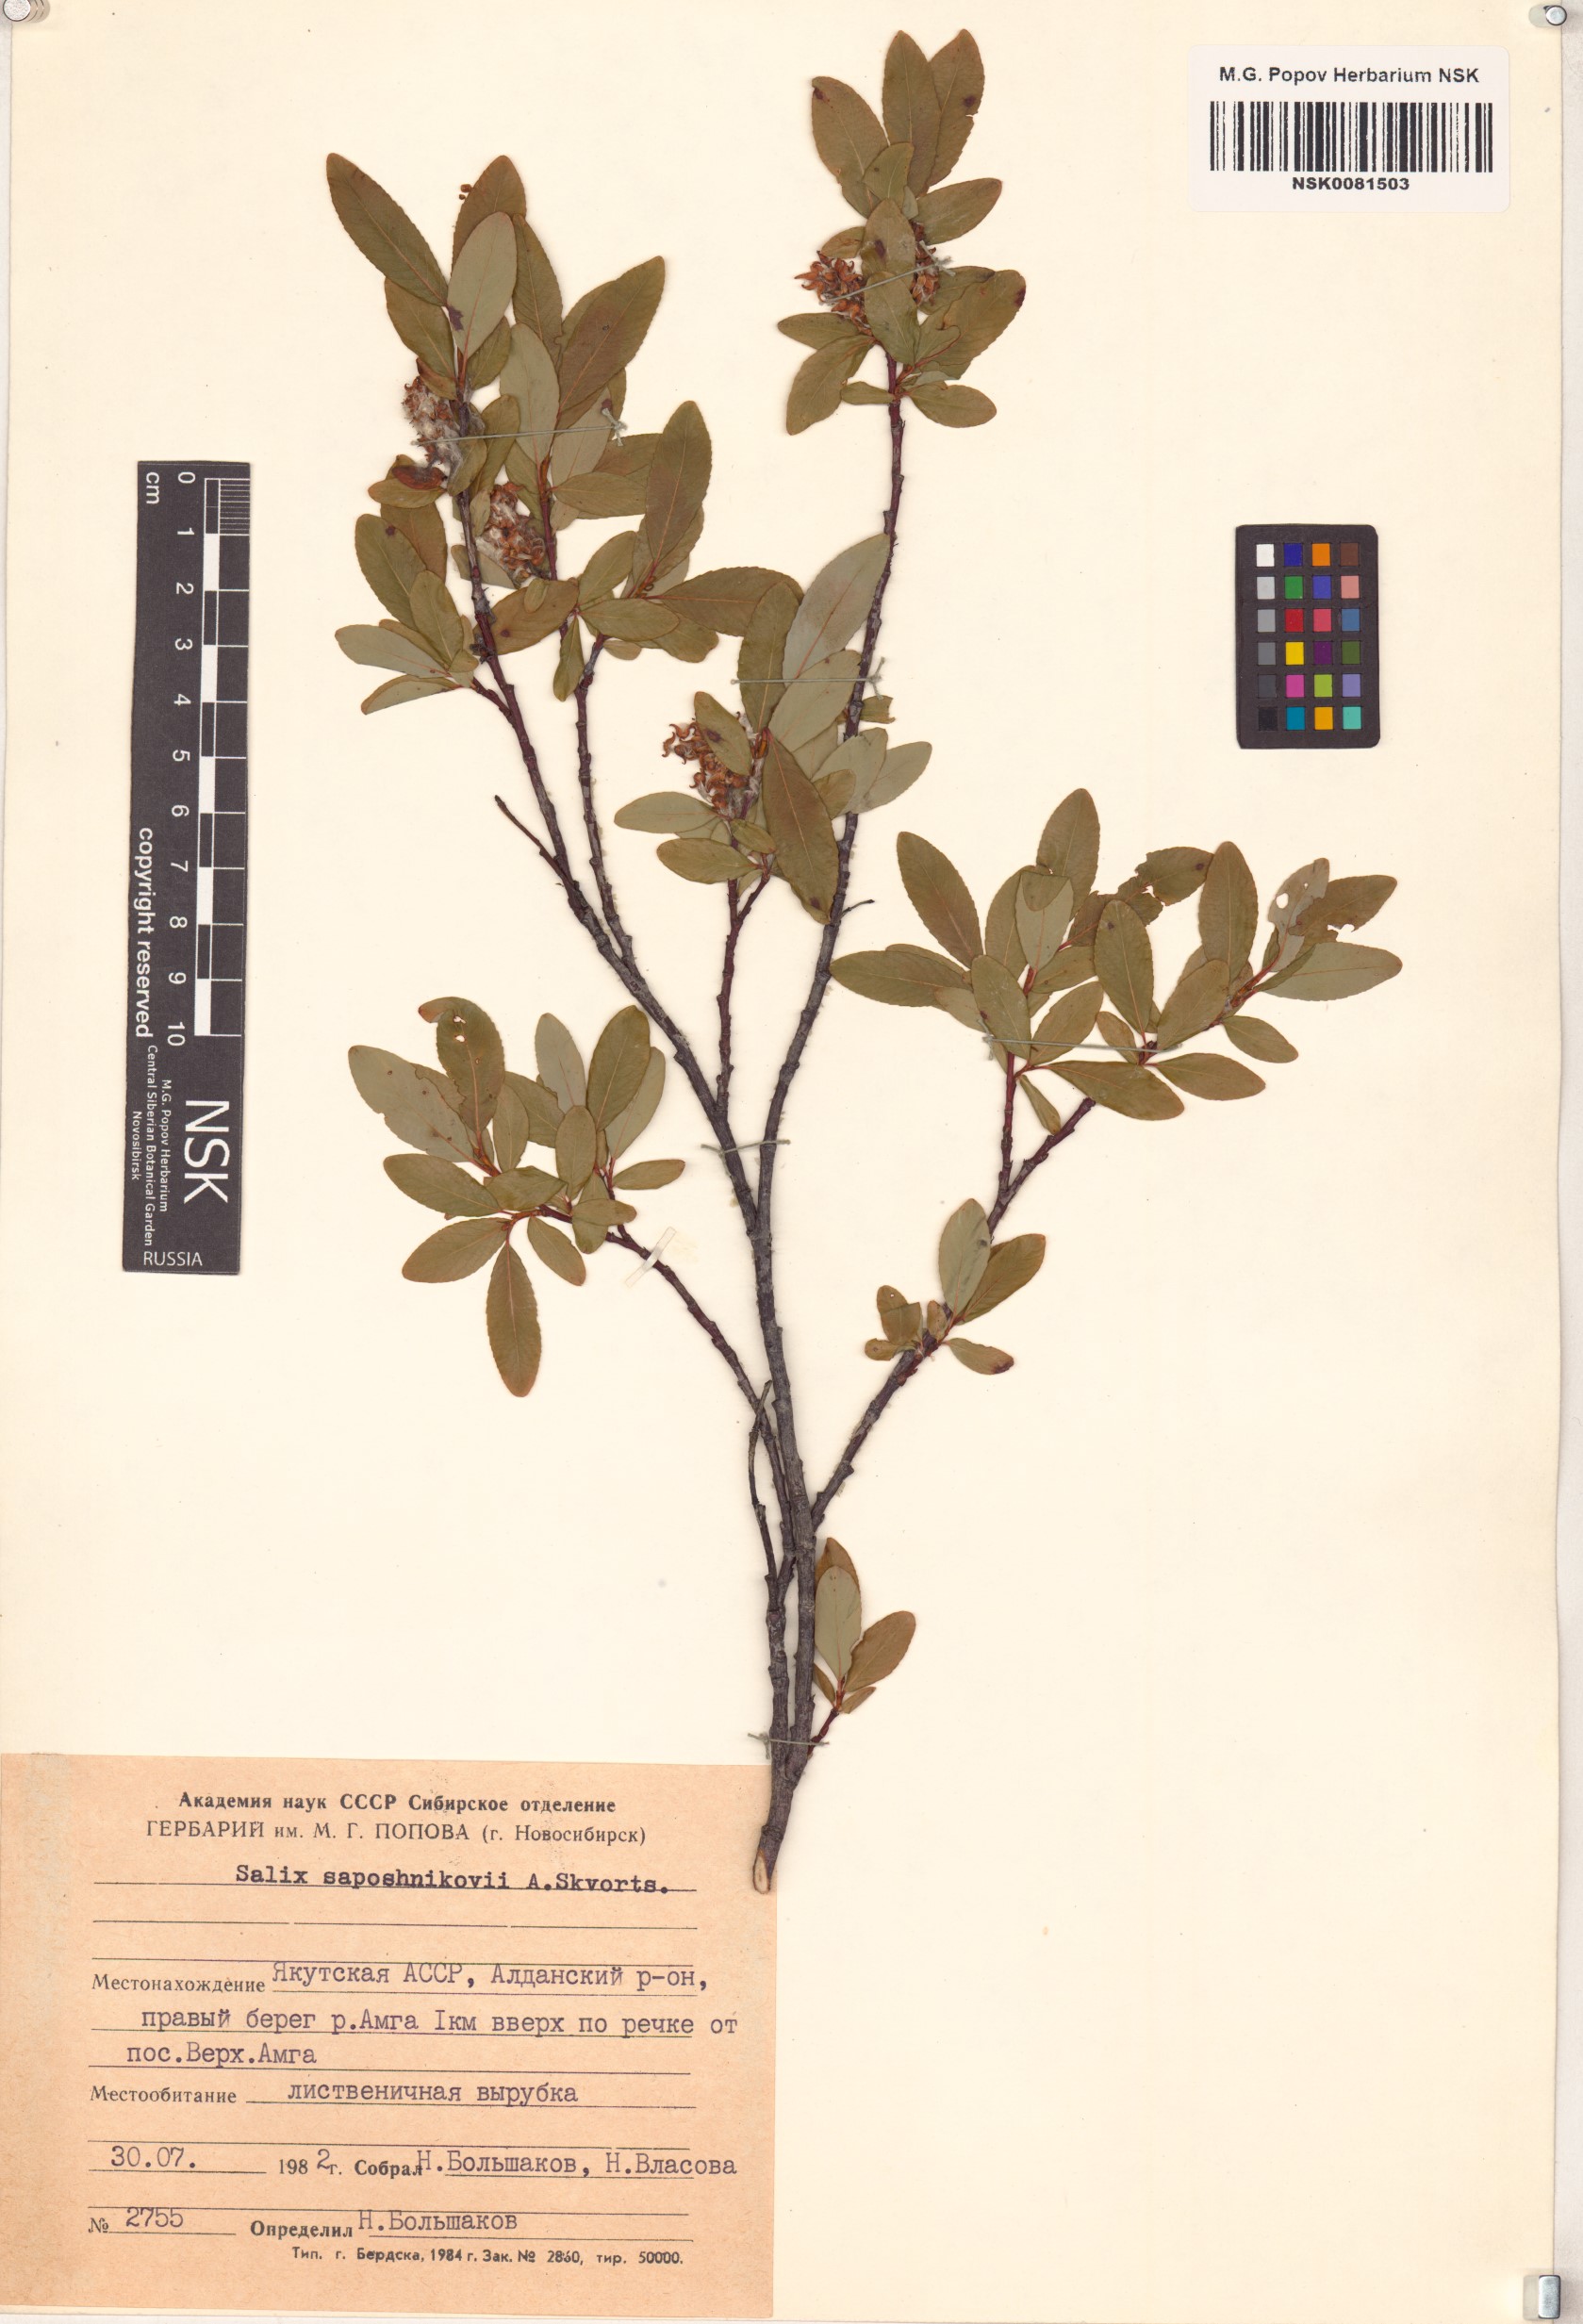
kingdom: Plantae
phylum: Tracheophyta
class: Magnoliopsida
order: Malpighiales
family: Salicaceae
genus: Salix
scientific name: Salix saposhnikovii
